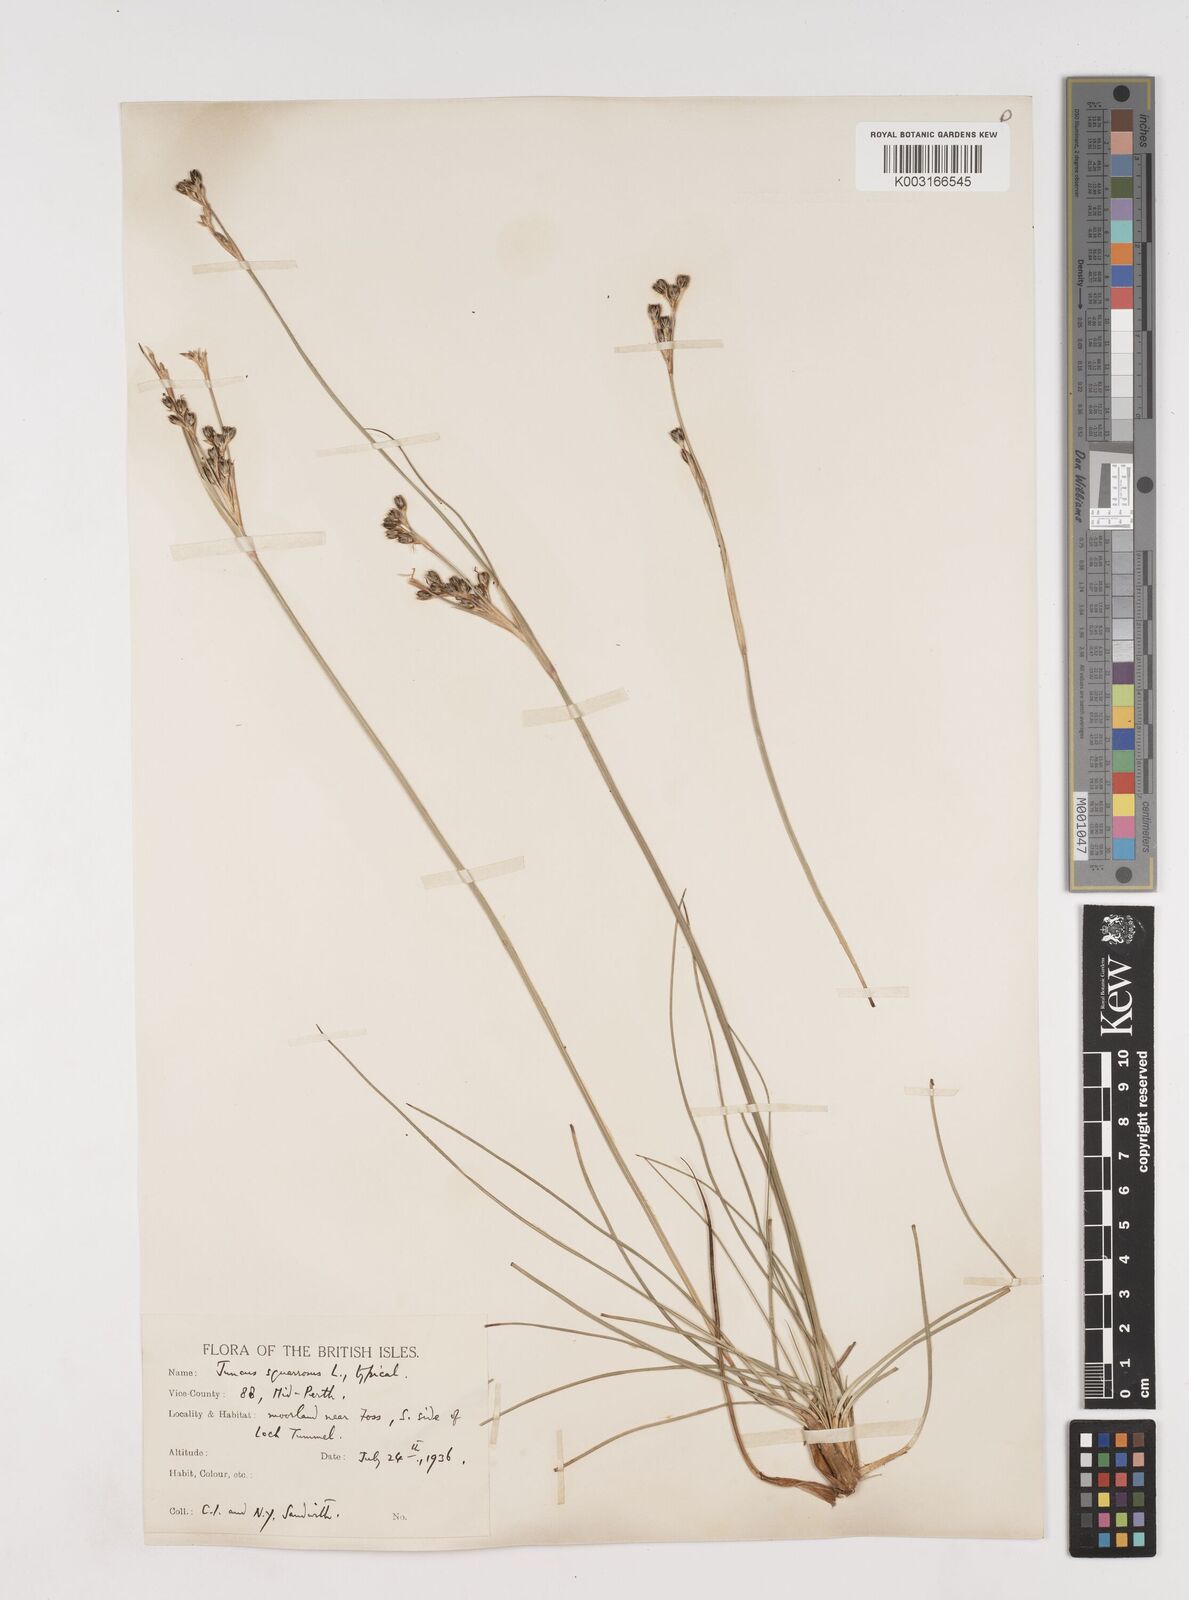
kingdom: Plantae
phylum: Tracheophyta
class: Liliopsida
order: Poales
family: Juncaceae
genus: Juncus
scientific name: Juncus squarrosus
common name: Heath rush
